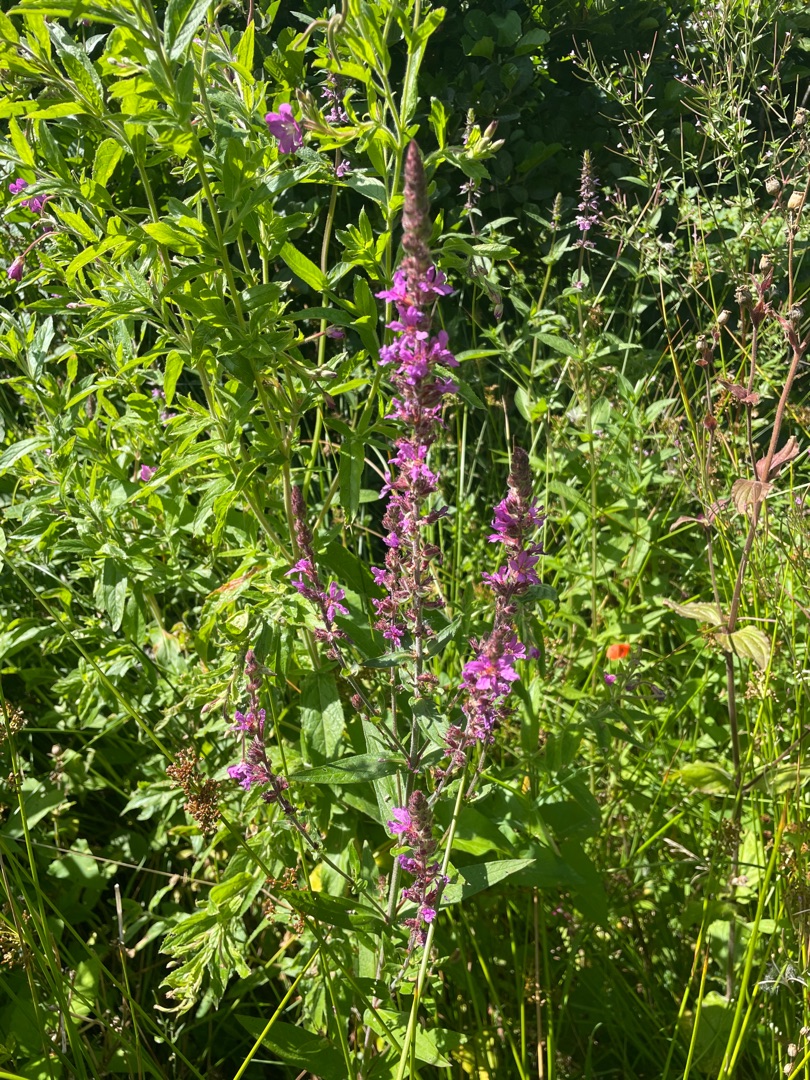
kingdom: Plantae
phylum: Tracheophyta
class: Magnoliopsida
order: Myrtales
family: Lythraceae
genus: Lythrum
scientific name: Lythrum salicaria
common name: Kattehale
